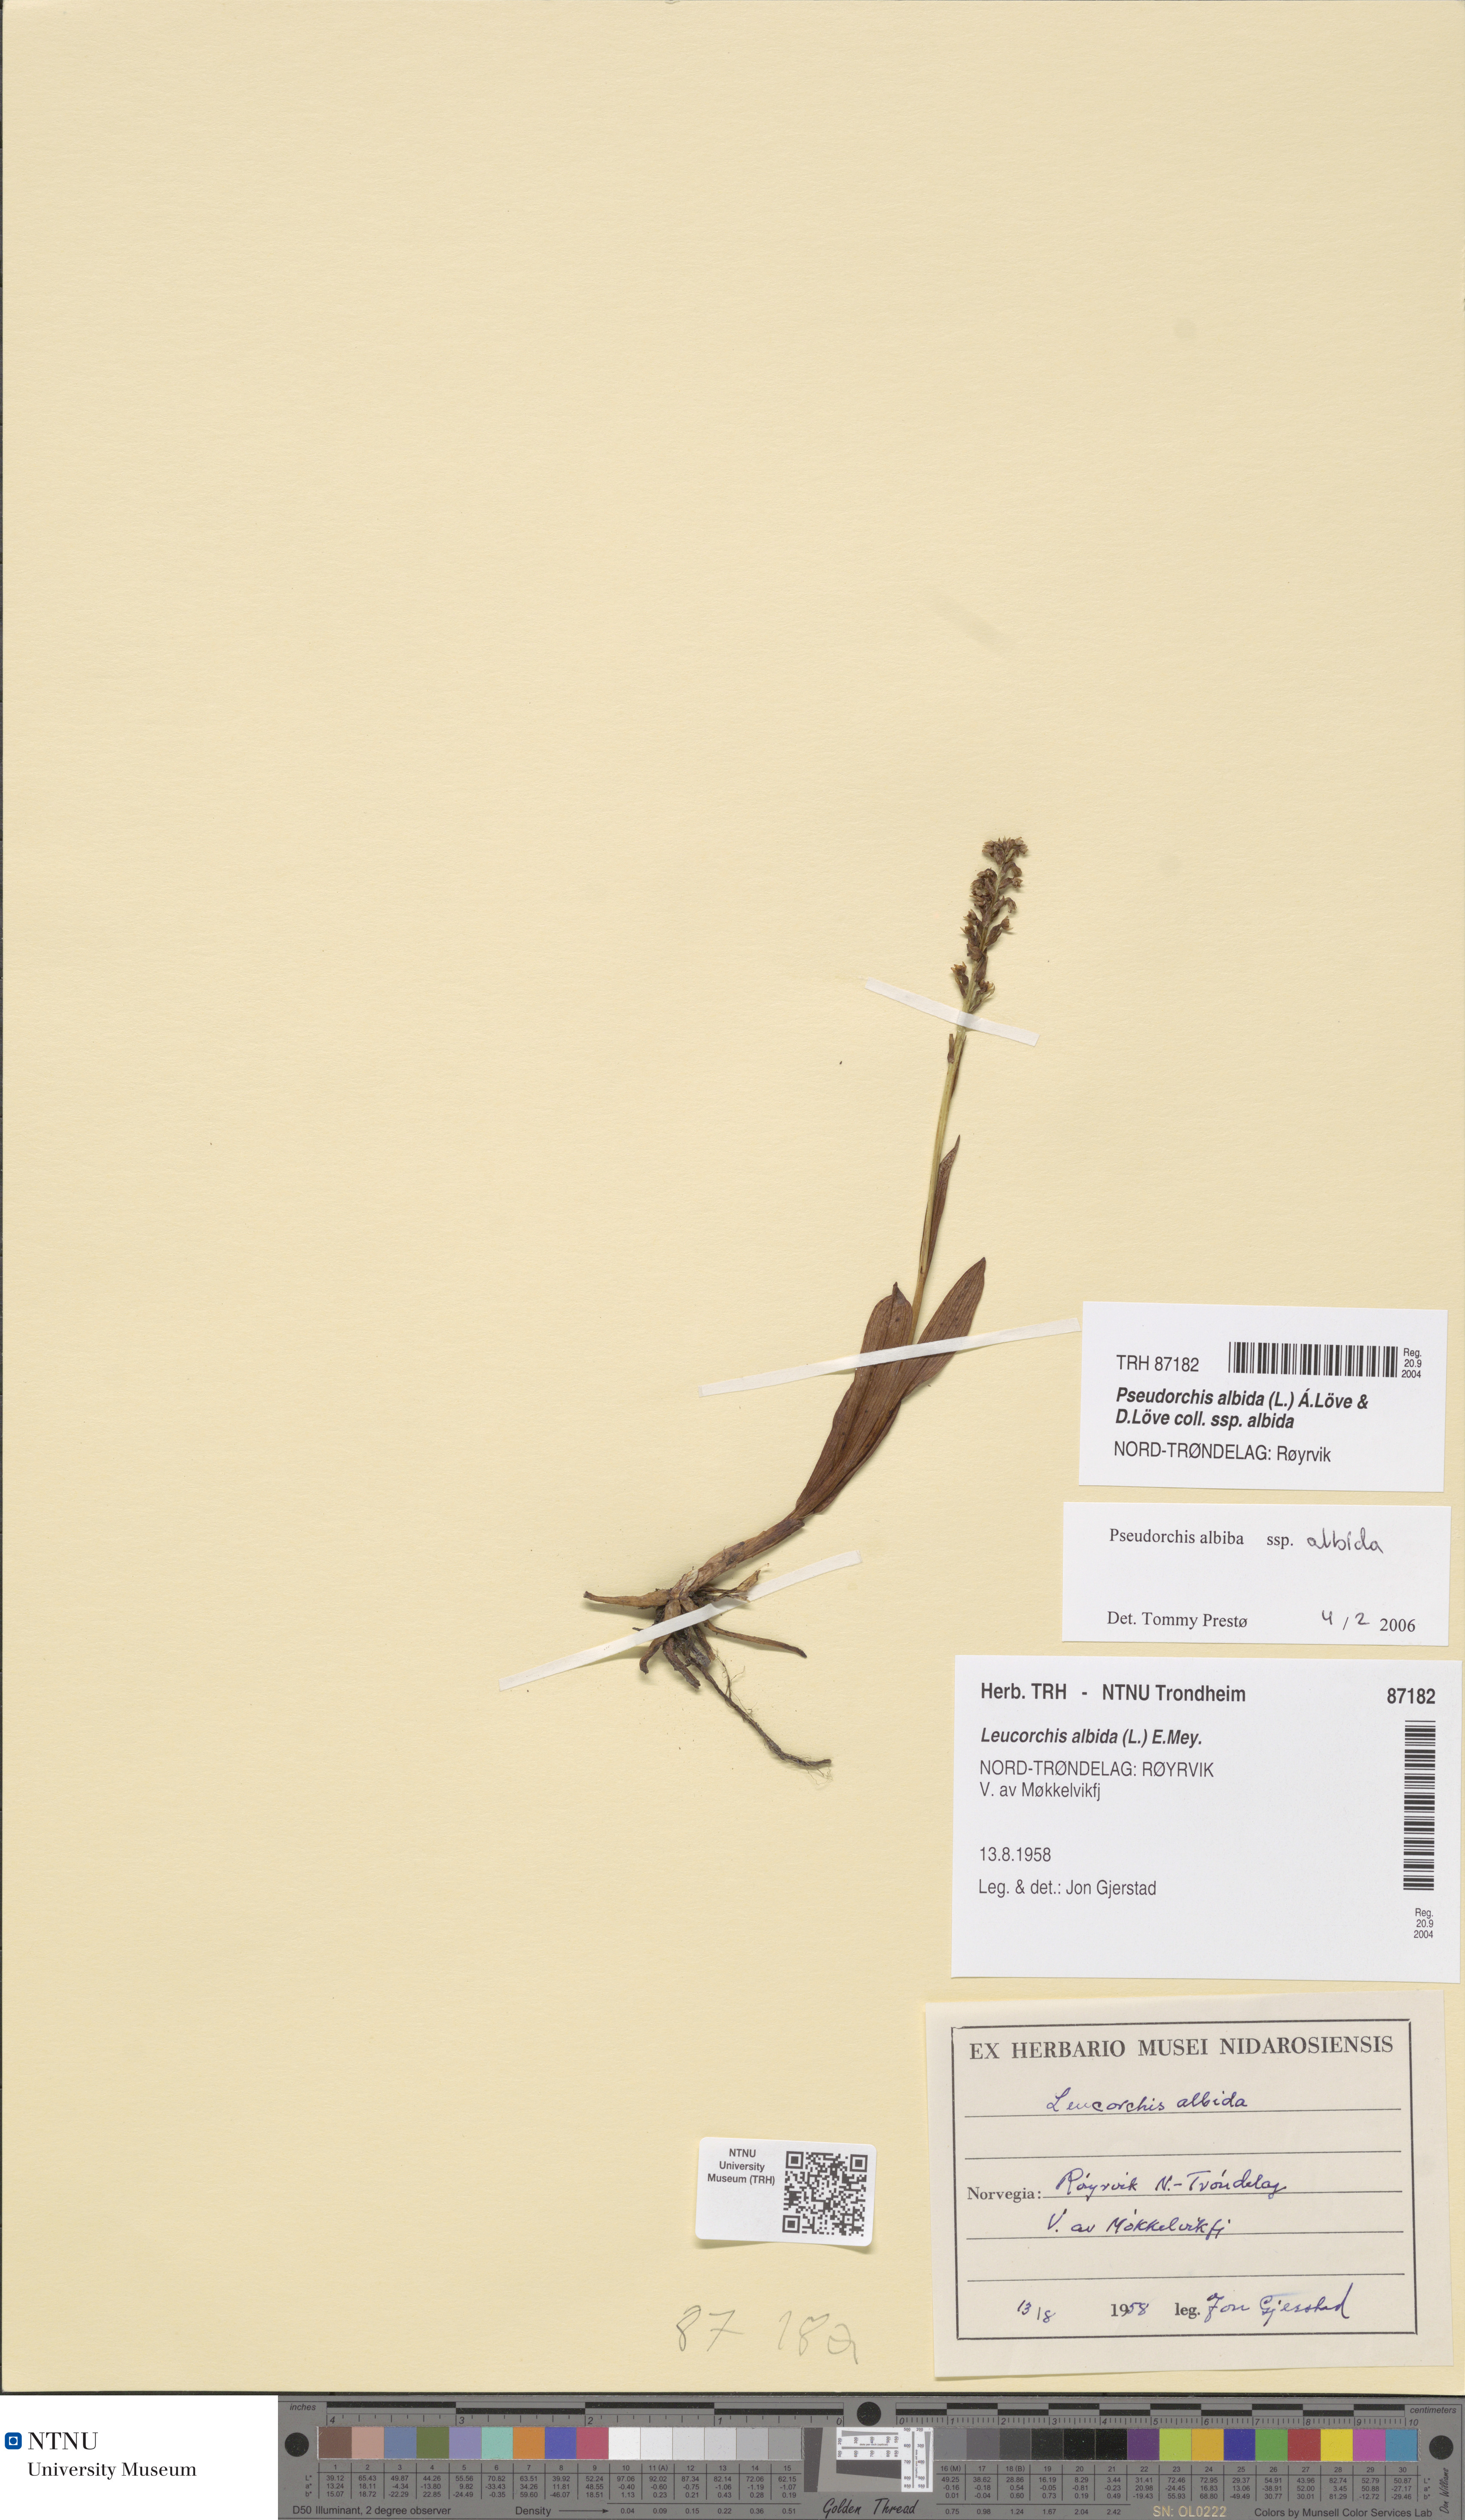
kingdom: Plantae
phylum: Tracheophyta
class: Liliopsida
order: Asparagales
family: Orchidaceae
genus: Pseudorchis
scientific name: Pseudorchis albida
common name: Small-white orchid
